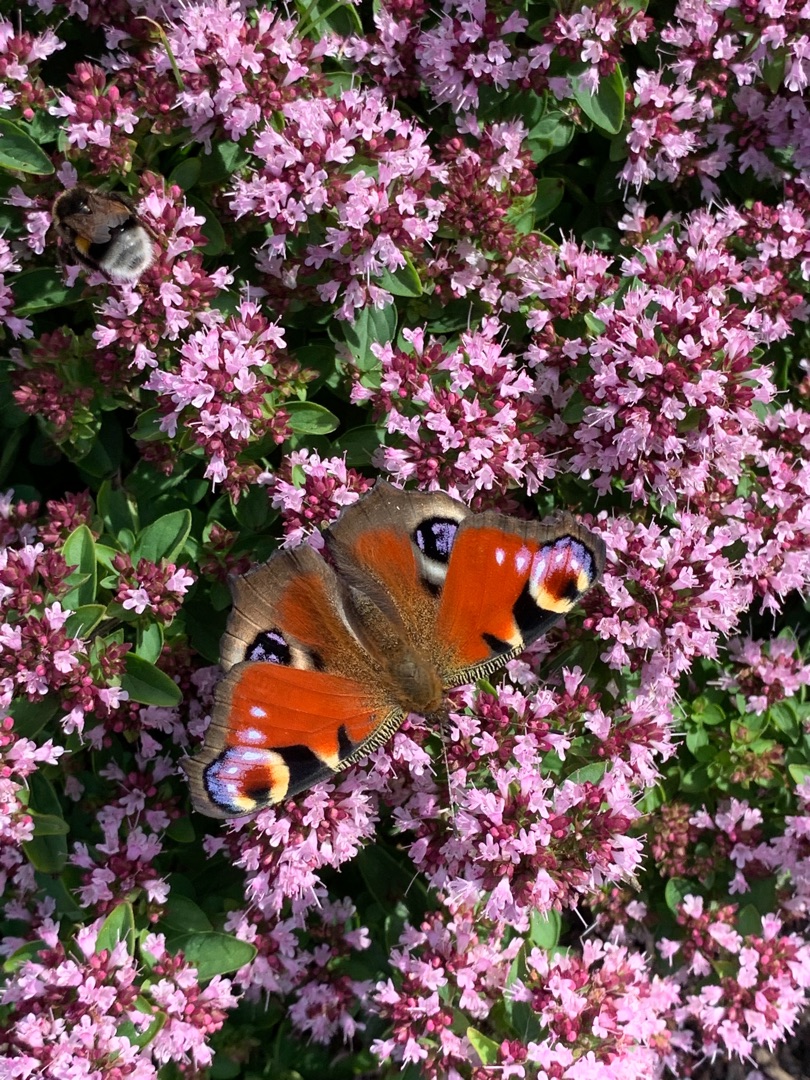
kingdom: Animalia
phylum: Arthropoda
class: Insecta
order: Lepidoptera
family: Nymphalidae
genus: Aglais
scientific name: Aglais io
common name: Dagpåfugleøje
